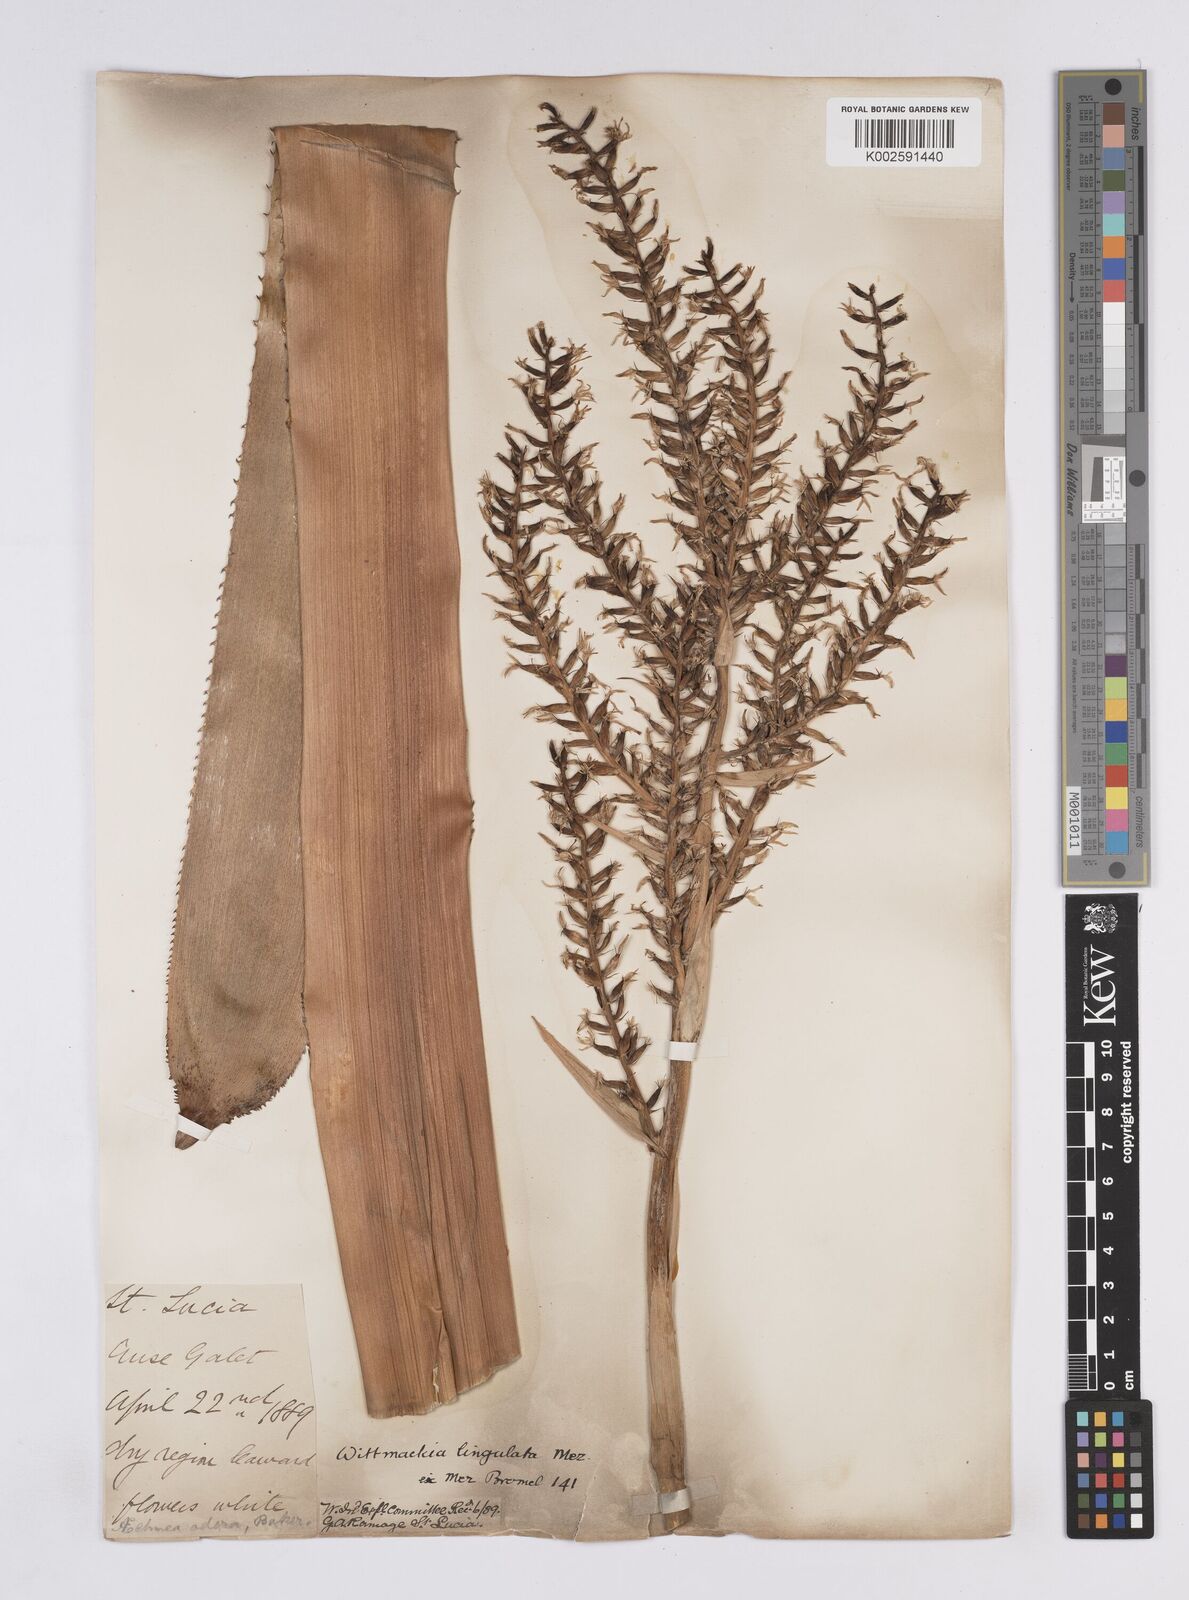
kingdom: Plantae
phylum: Tracheophyta
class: Liliopsida
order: Poales
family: Bromeliaceae
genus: Wittmackia
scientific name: Wittmackia lingulata
